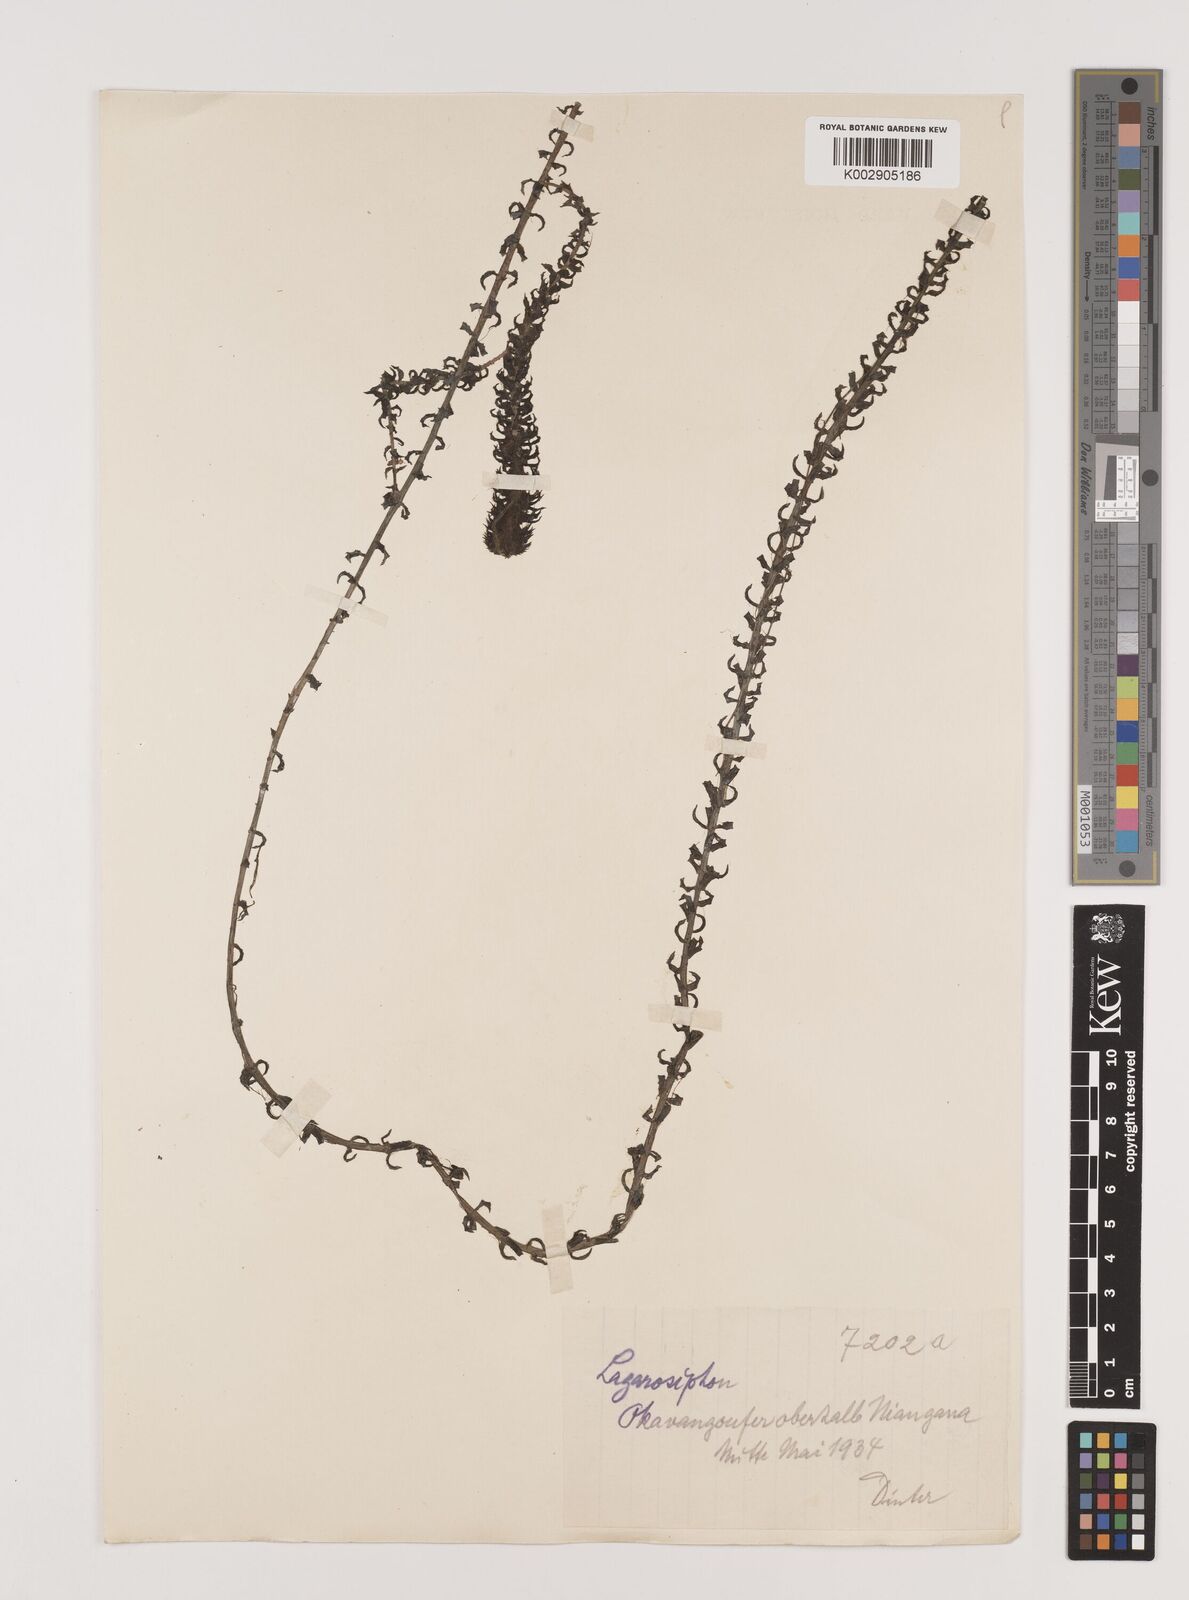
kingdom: Plantae
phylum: Tracheophyta
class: Liliopsida
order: Alismatales
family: Hydrocharitaceae
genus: Lagarosiphon
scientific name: Lagarosiphon
